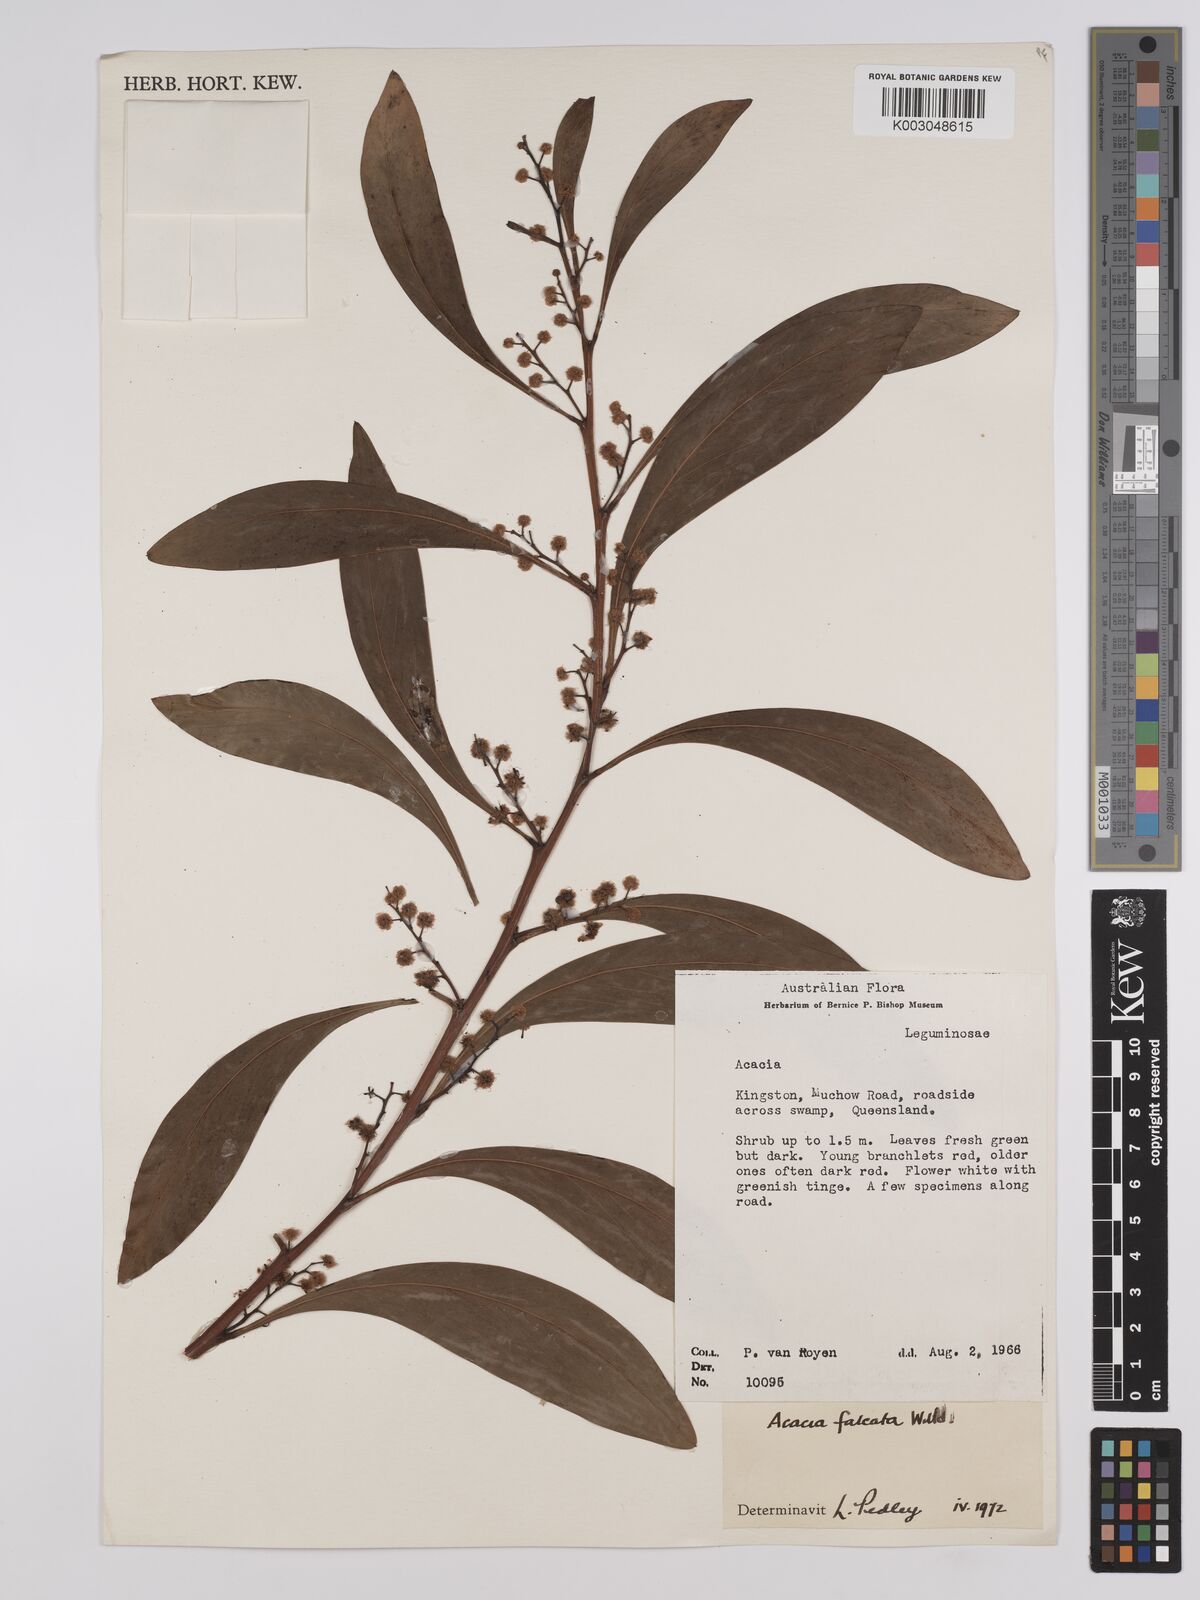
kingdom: Plantae
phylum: Tracheophyta
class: Magnoliopsida
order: Fabales
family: Fabaceae
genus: Acacia
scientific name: Acacia falcata
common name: Burra acacia
